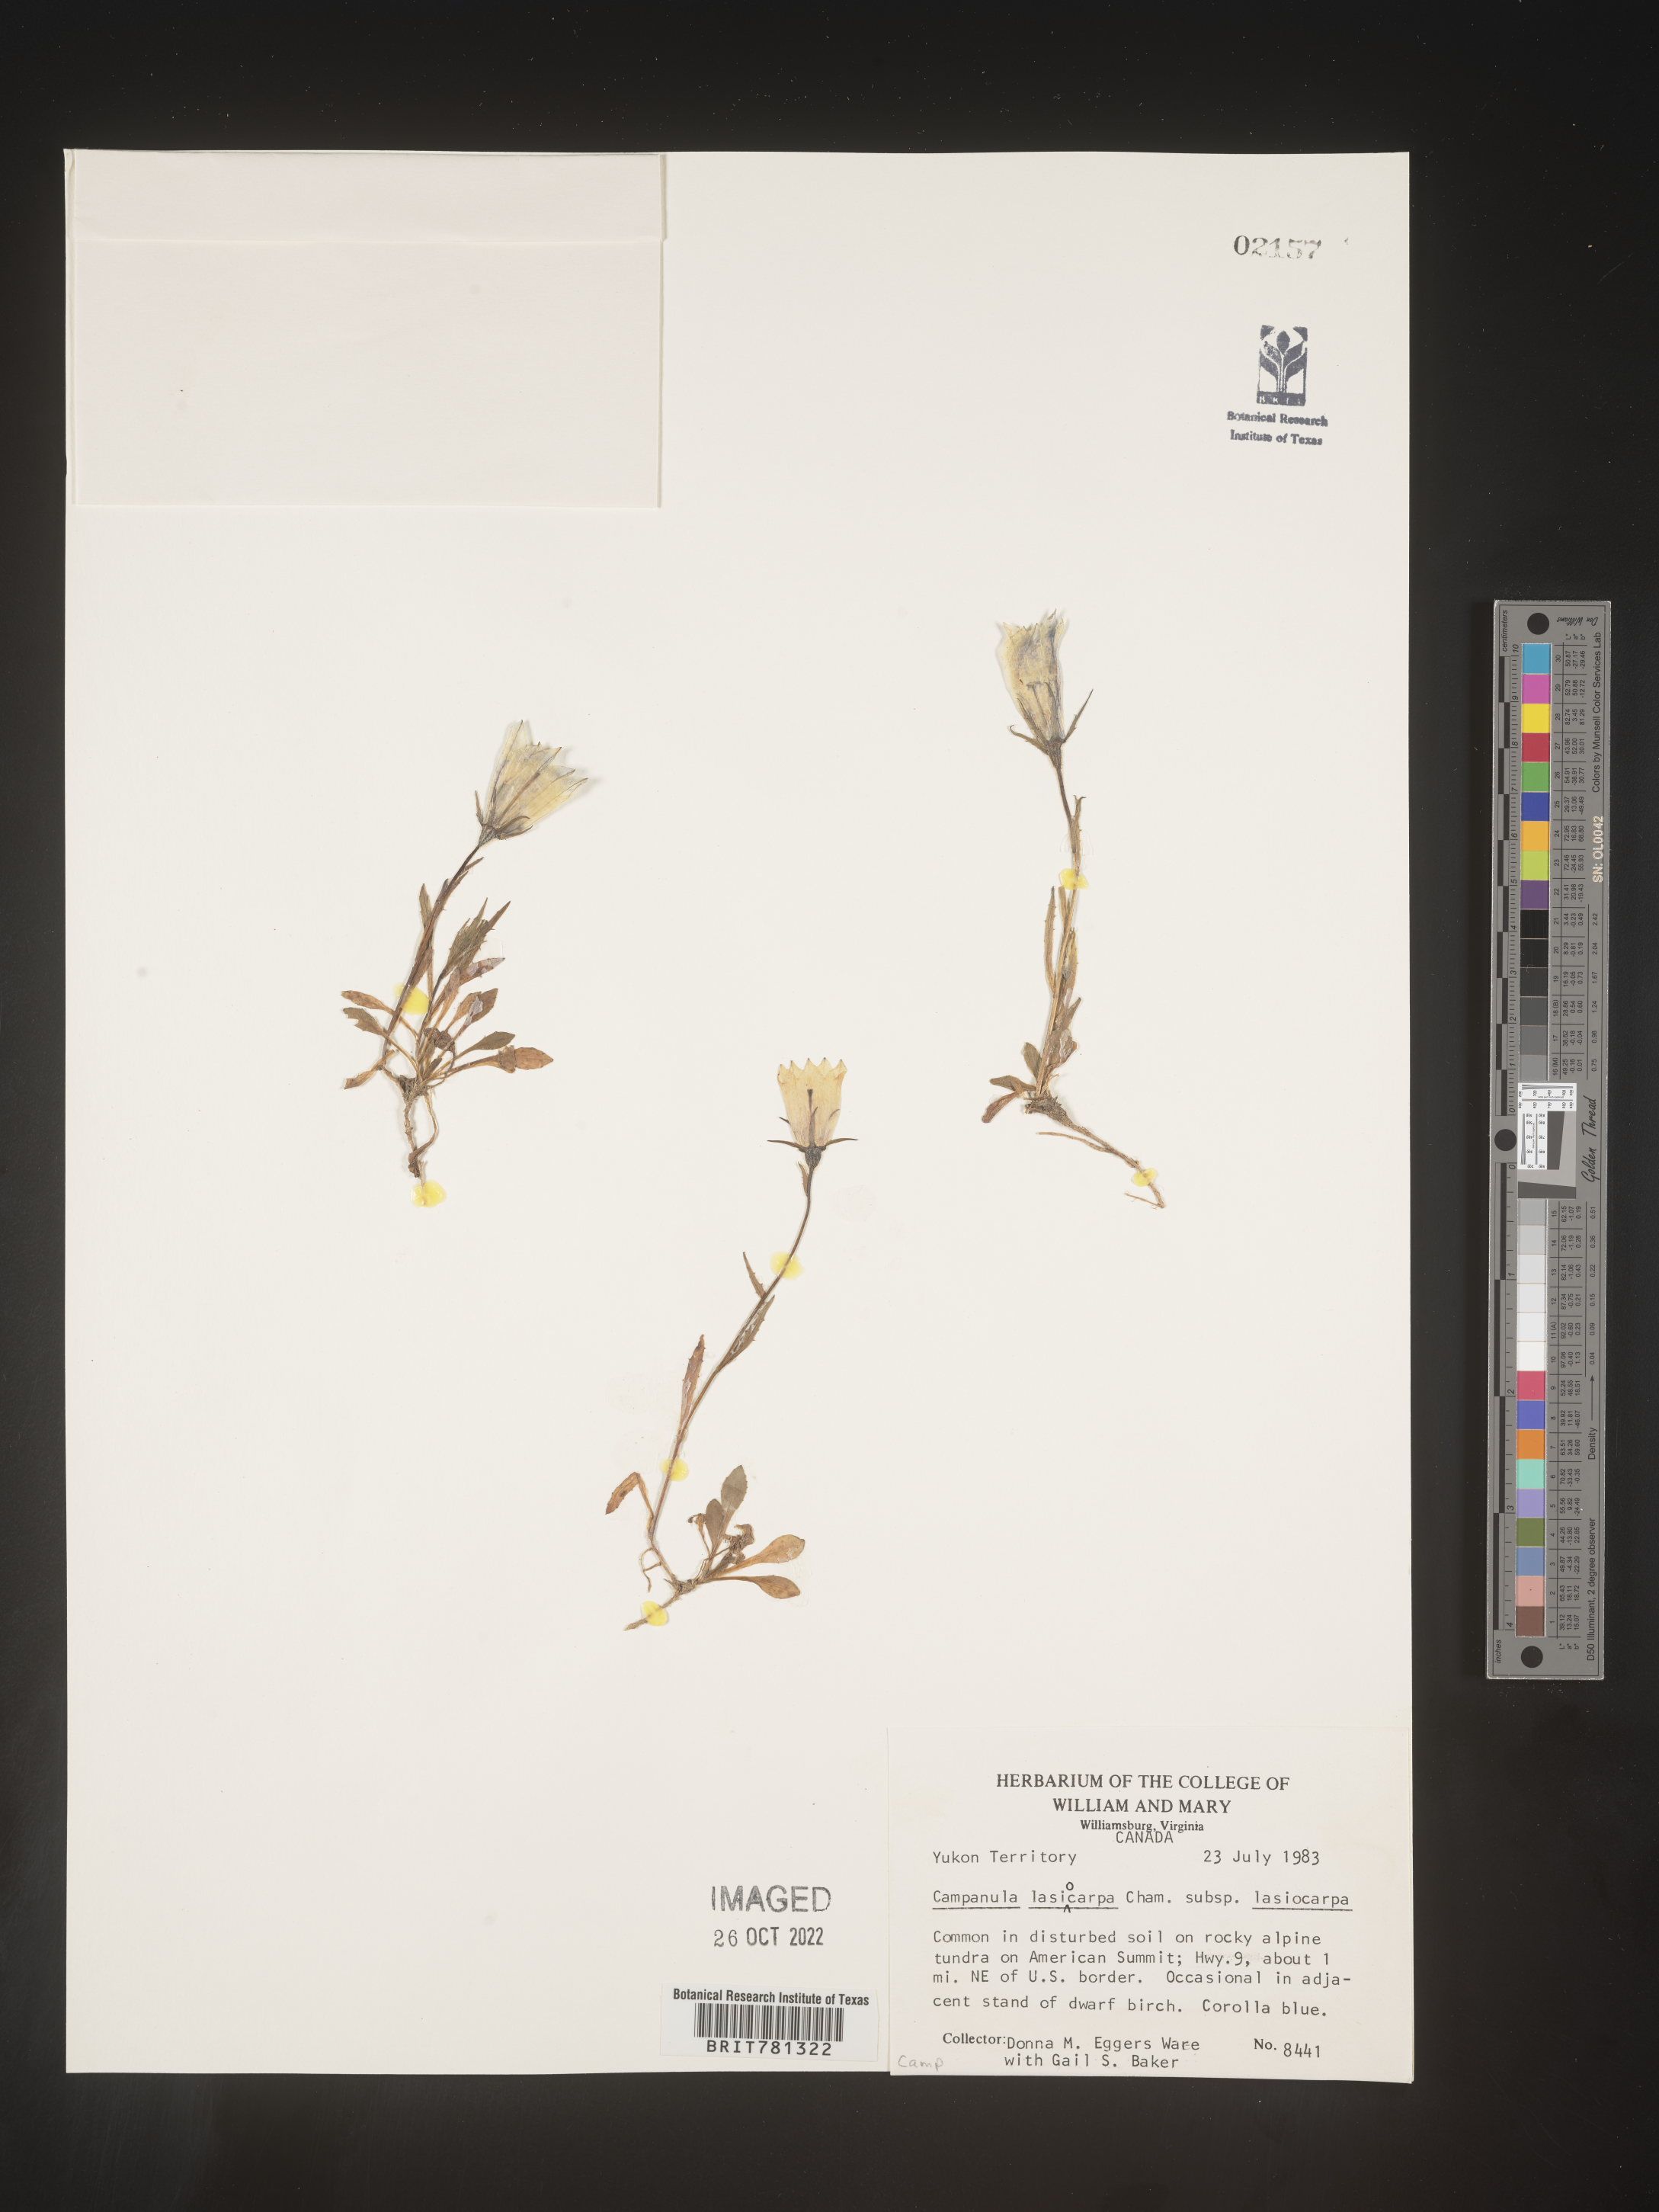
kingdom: Plantae
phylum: Tracheophyta
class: Magnoliopsida
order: Asterales
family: Campanulaceae
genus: Campanula
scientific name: Campanula
